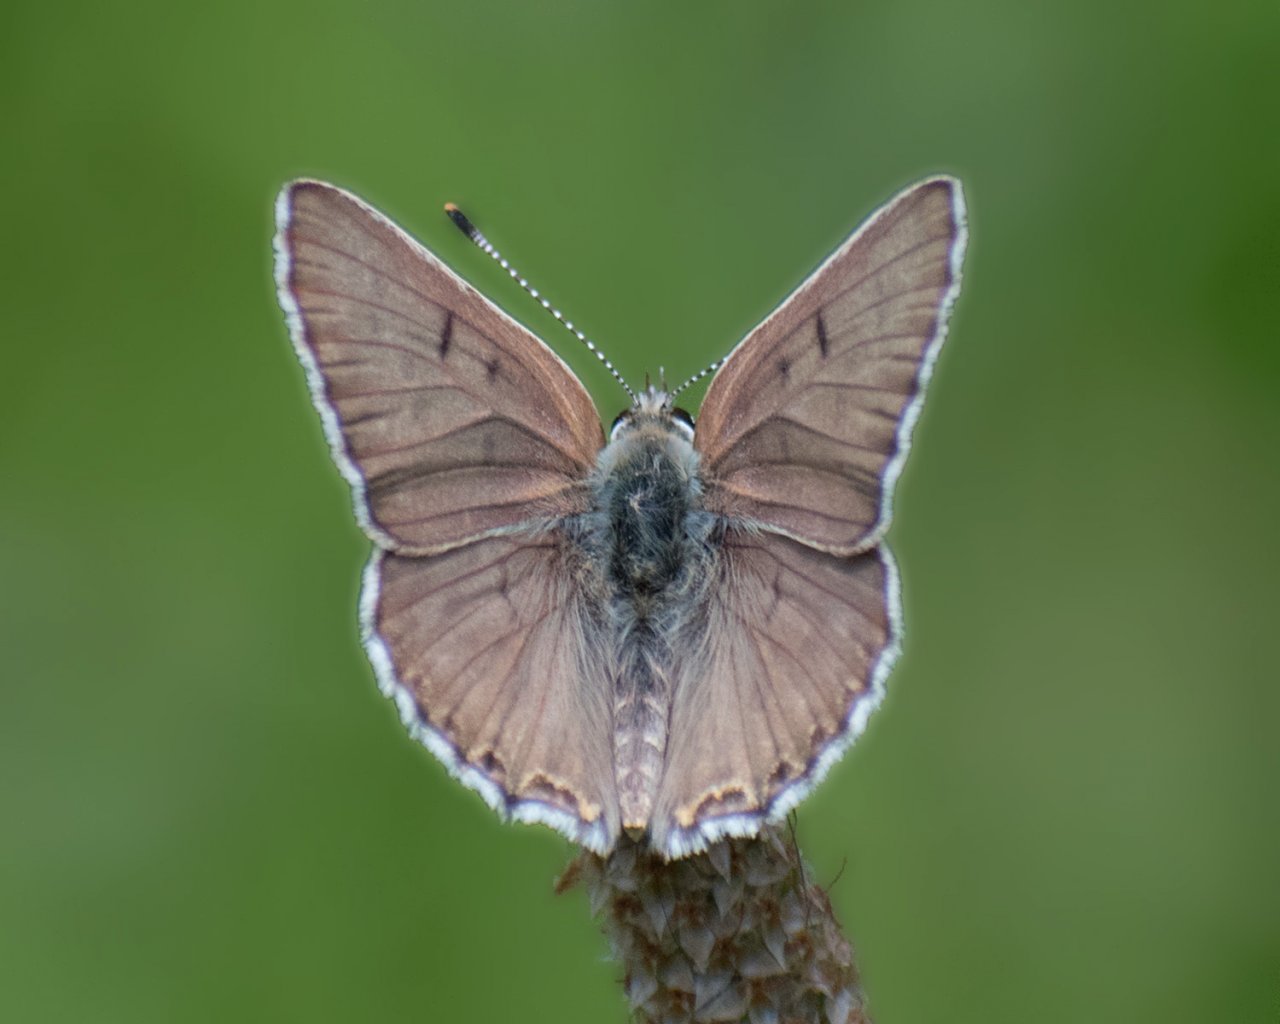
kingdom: Animalia
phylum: Arthropoda
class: Insecta
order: Lepidoptera
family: Lycaenidae
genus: Lycaena
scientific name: Lycaena editha
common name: Edith's Copper
